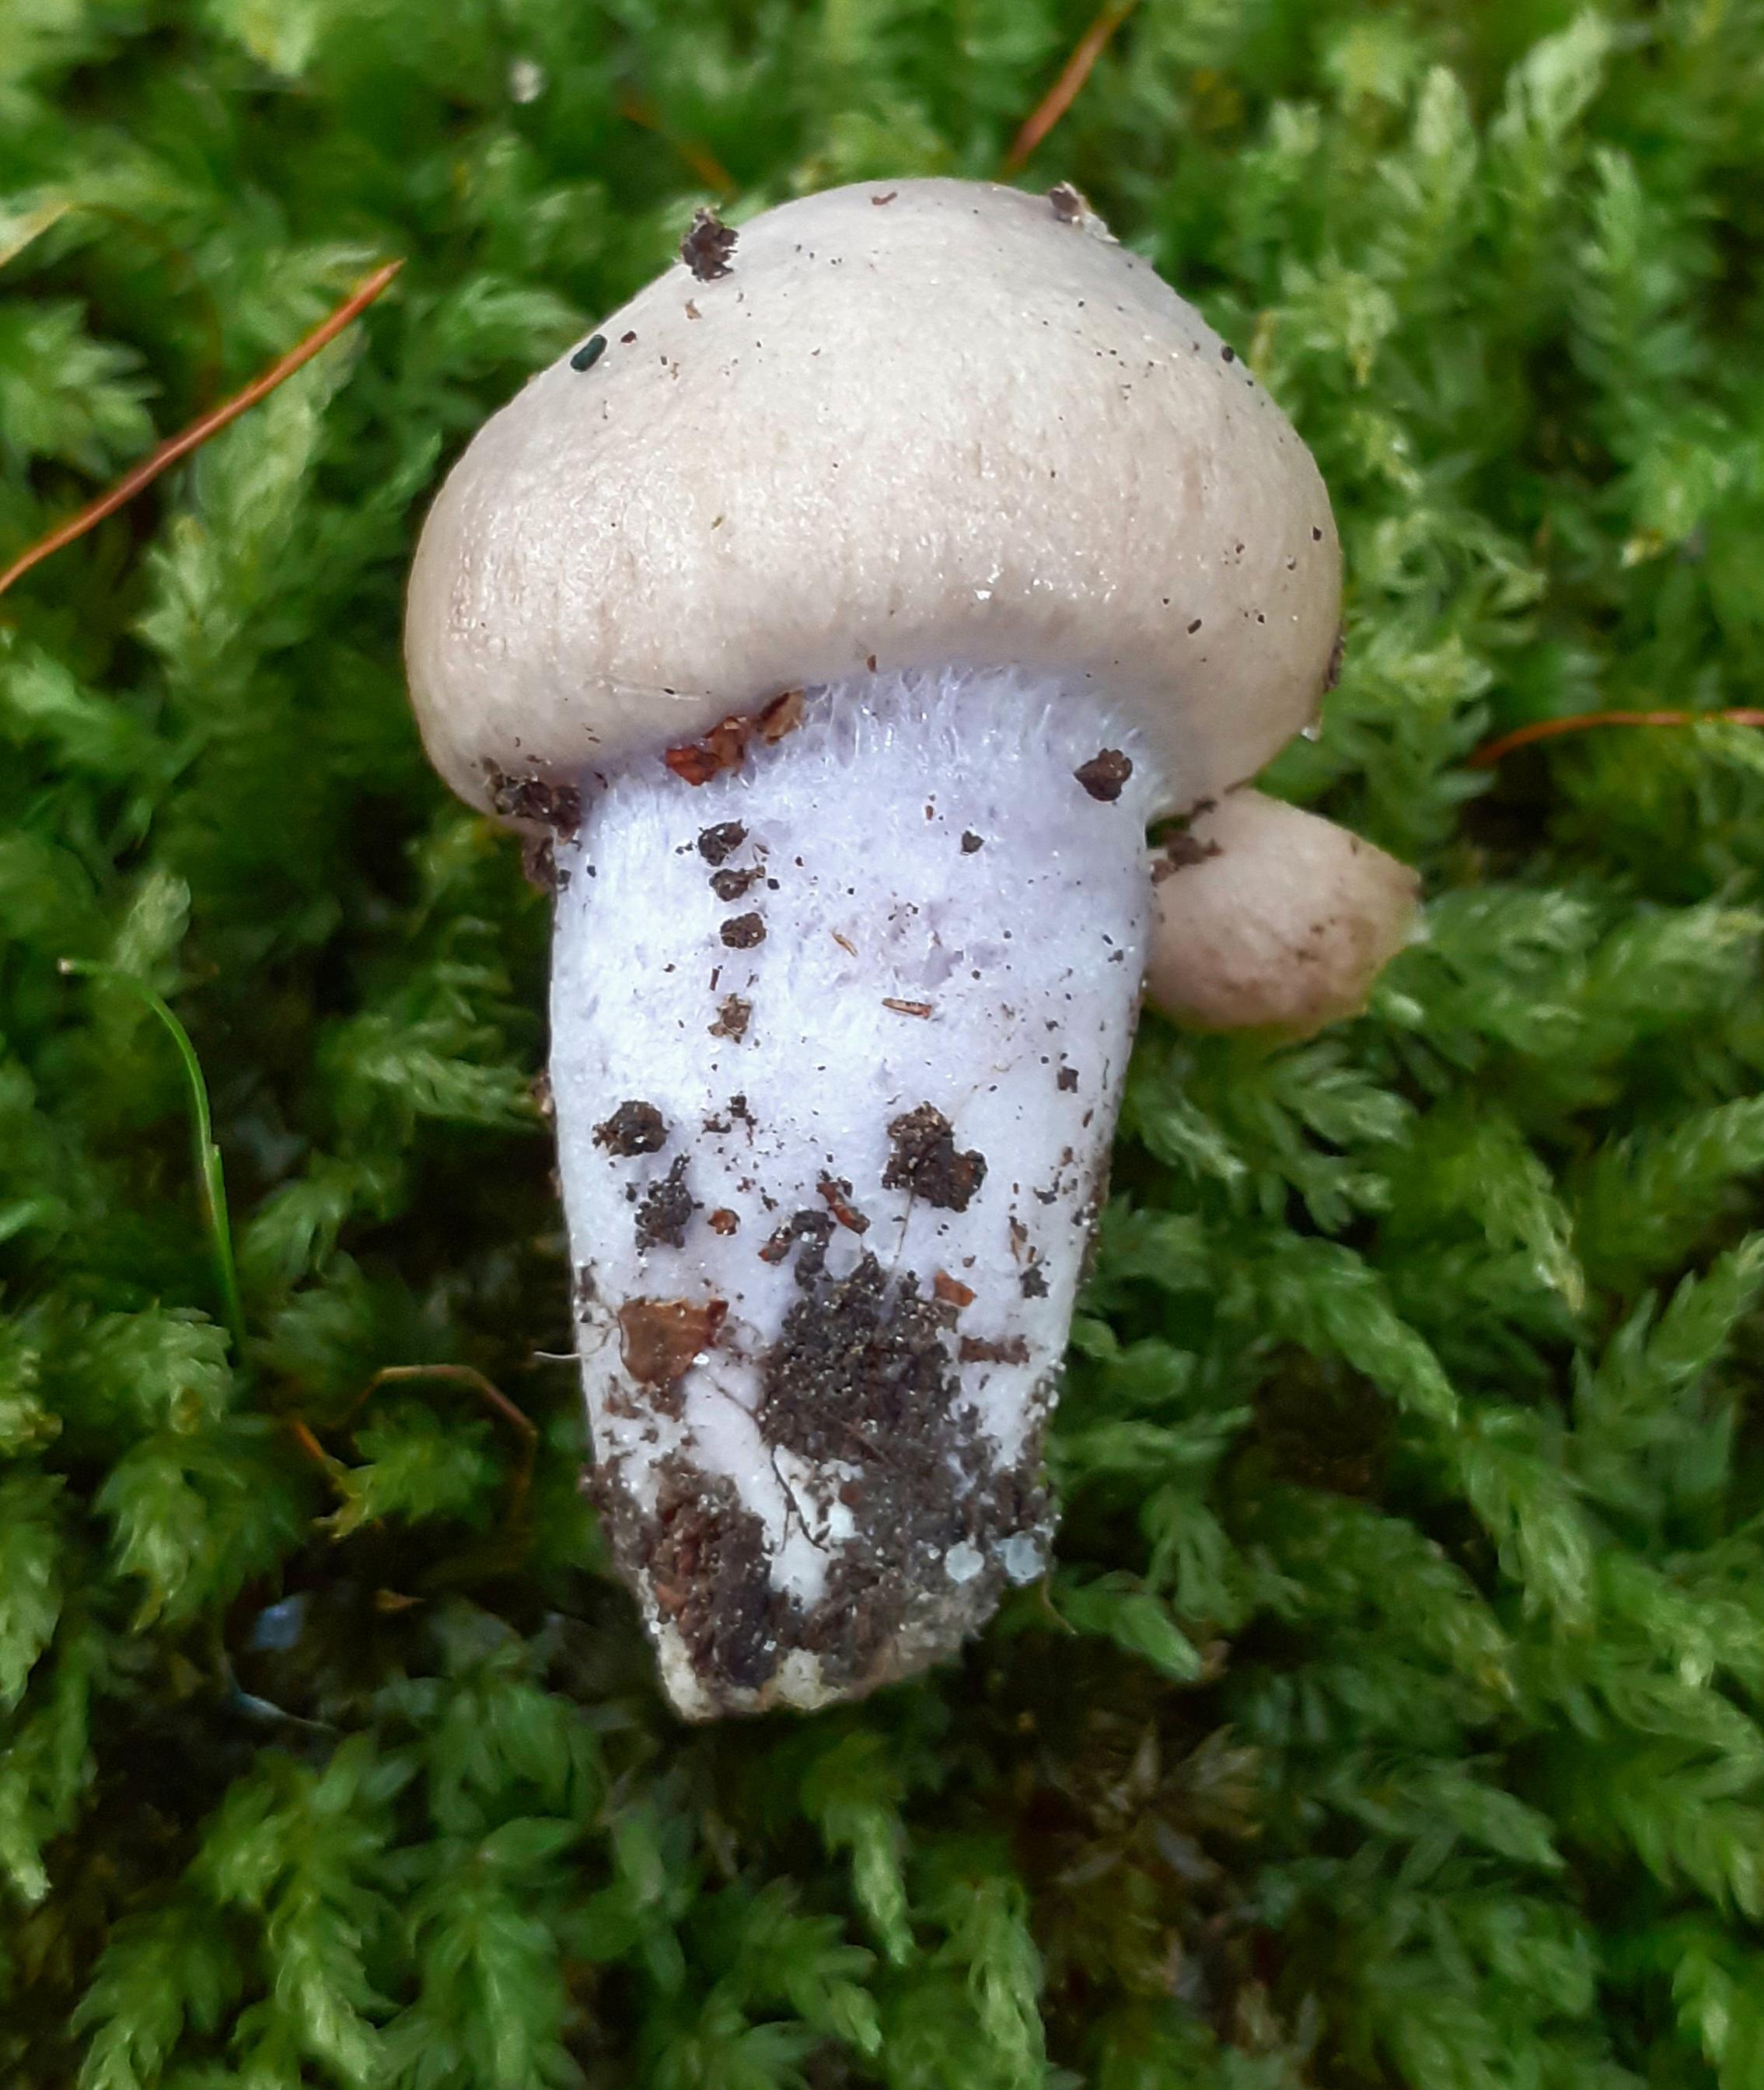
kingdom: Fungi
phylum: Basidiomycota
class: Agaricomycetes
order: Agaricales
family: Cortinariaceae
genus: Cortinarius
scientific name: Cortinarius elatior
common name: høj slørhat
